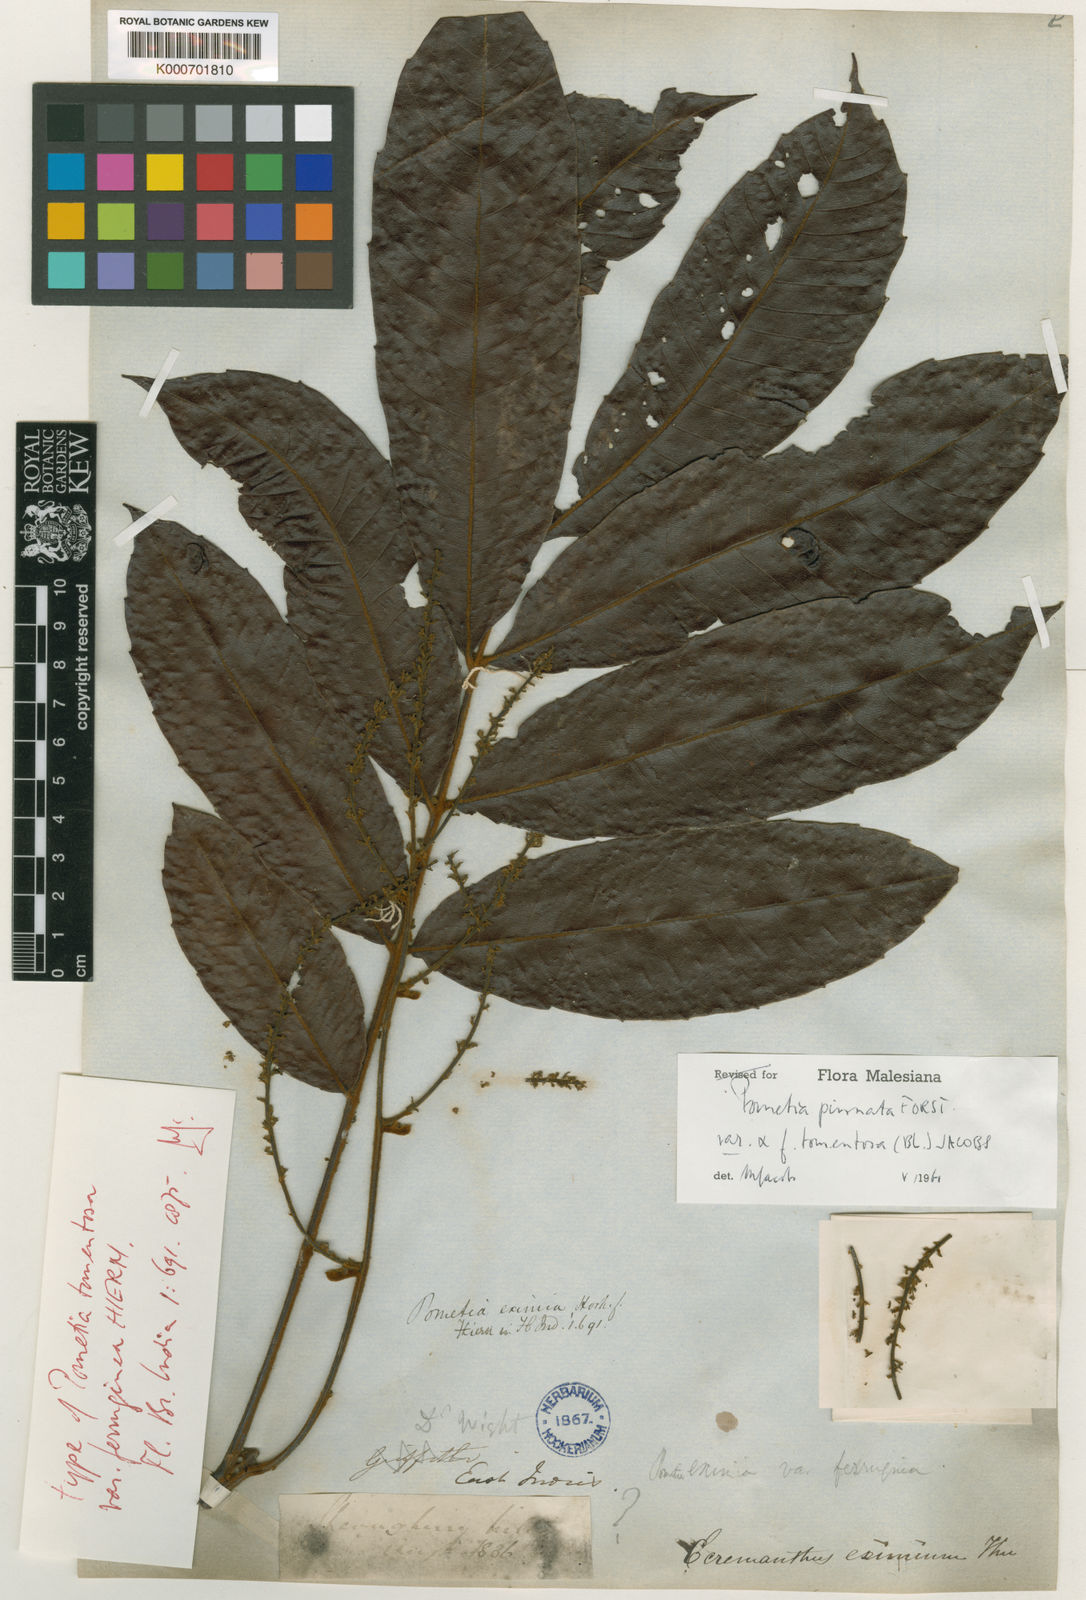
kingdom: Plantae
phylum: Tracheophyta
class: Magnoliopsida
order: Sapindales
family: Sapindaceae
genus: Pometia
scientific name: Pometia pinnata
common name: Oceanic lychee
